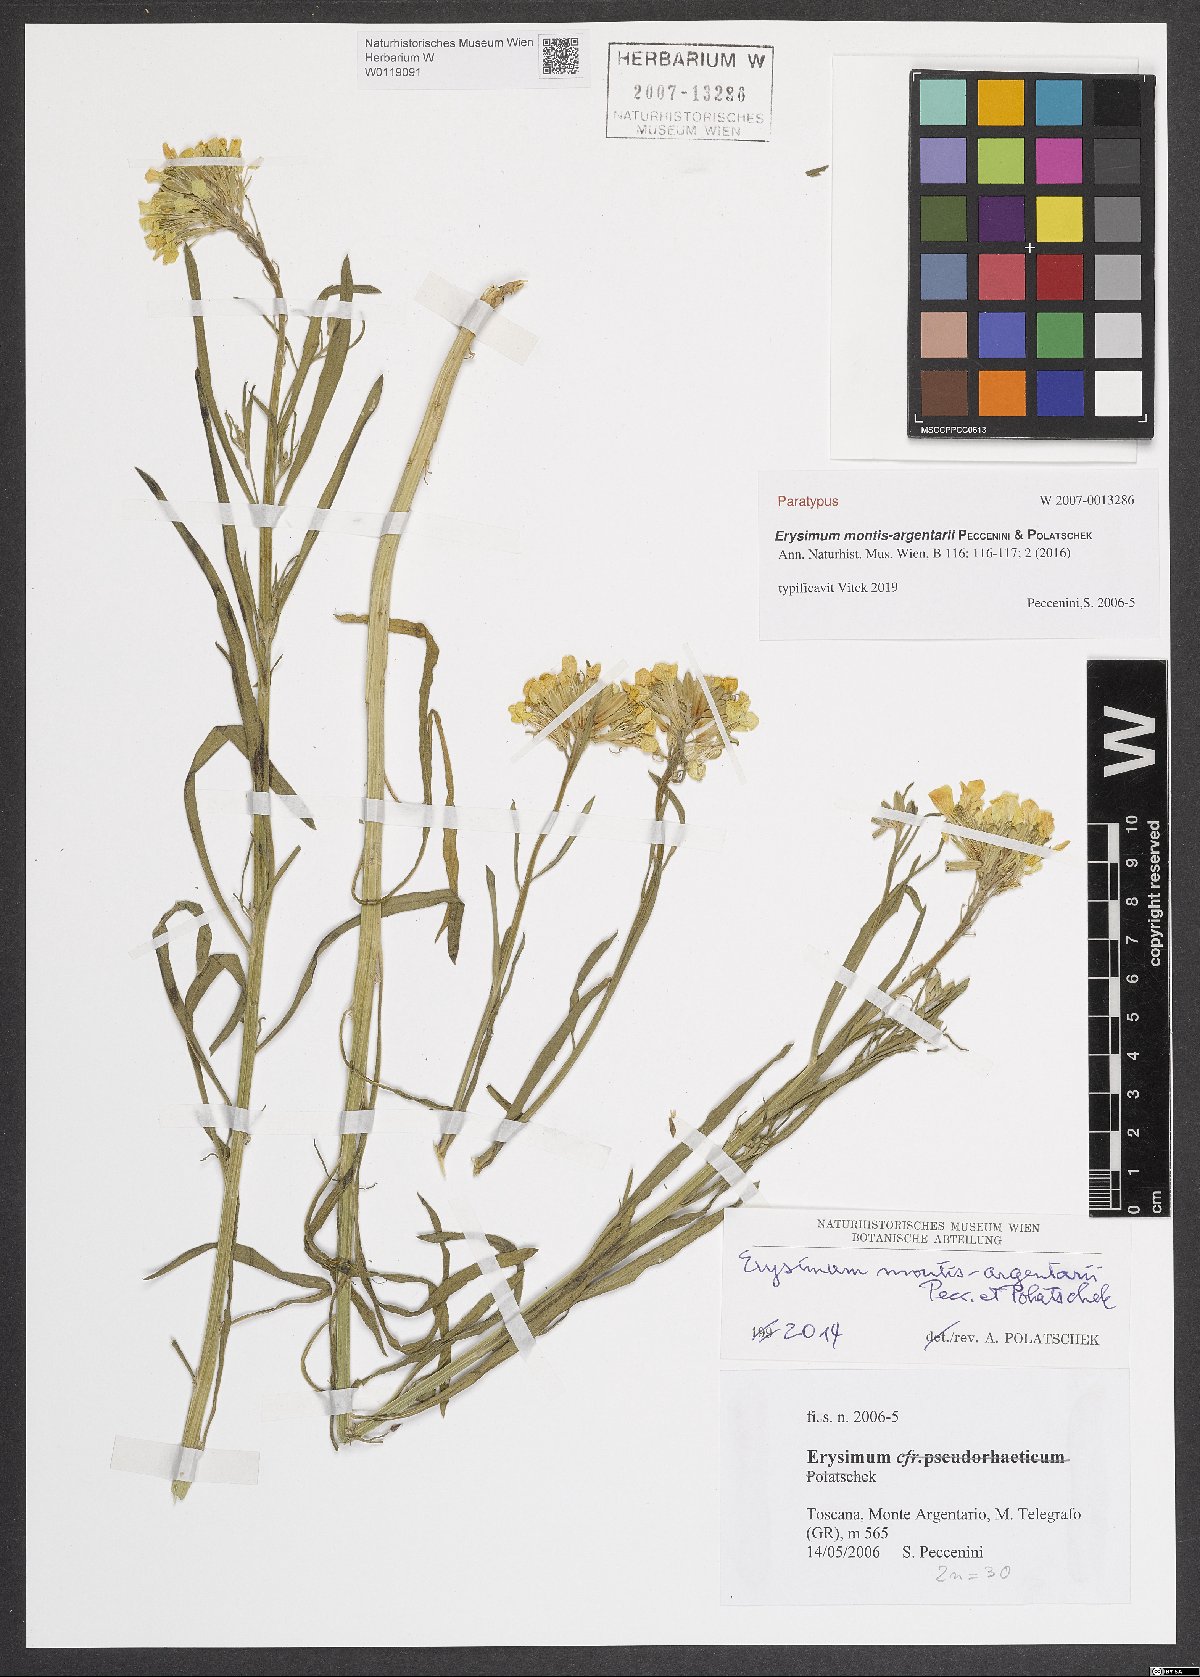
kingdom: Plantae
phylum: Tracheophyta
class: Magnoliopsida
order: Brassicales
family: Brassicaceae
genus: Erysimum
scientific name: Erysimum maremmanum
